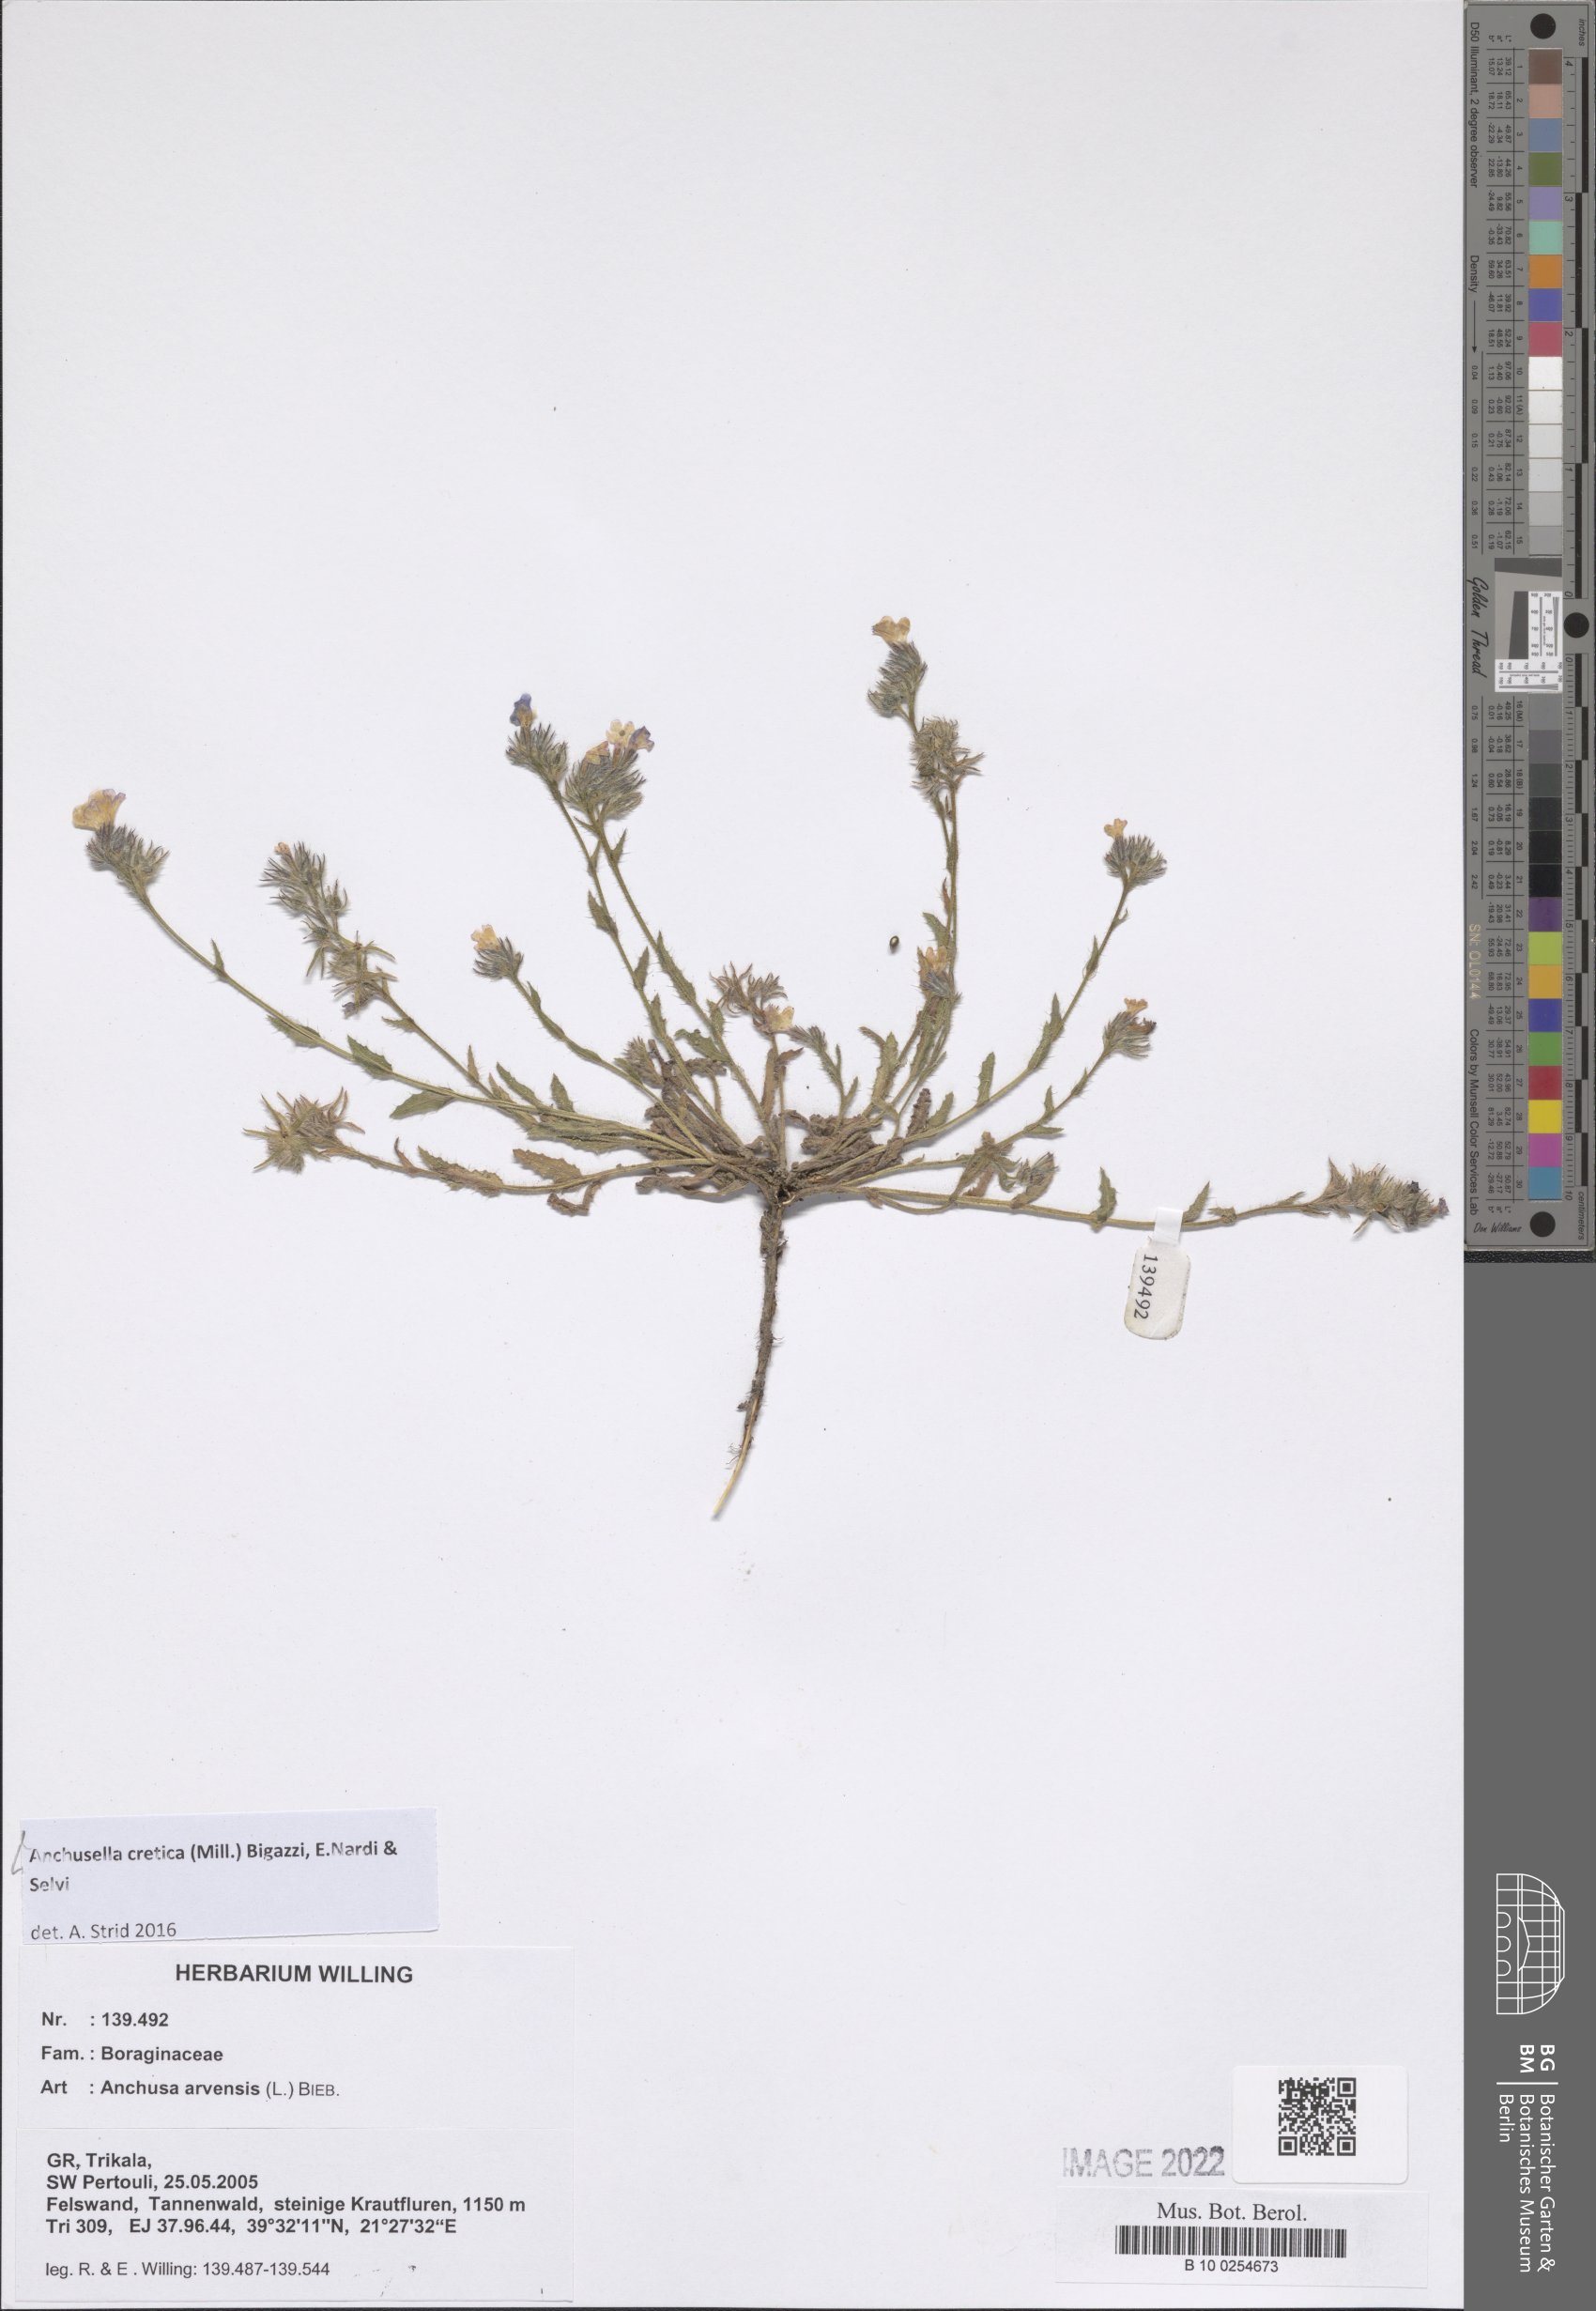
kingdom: Plantae
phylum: Tracheophyta
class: Magnoliopsida
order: Boraginales
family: Boraginaceae
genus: Anchusella
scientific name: Anchusella cretica
